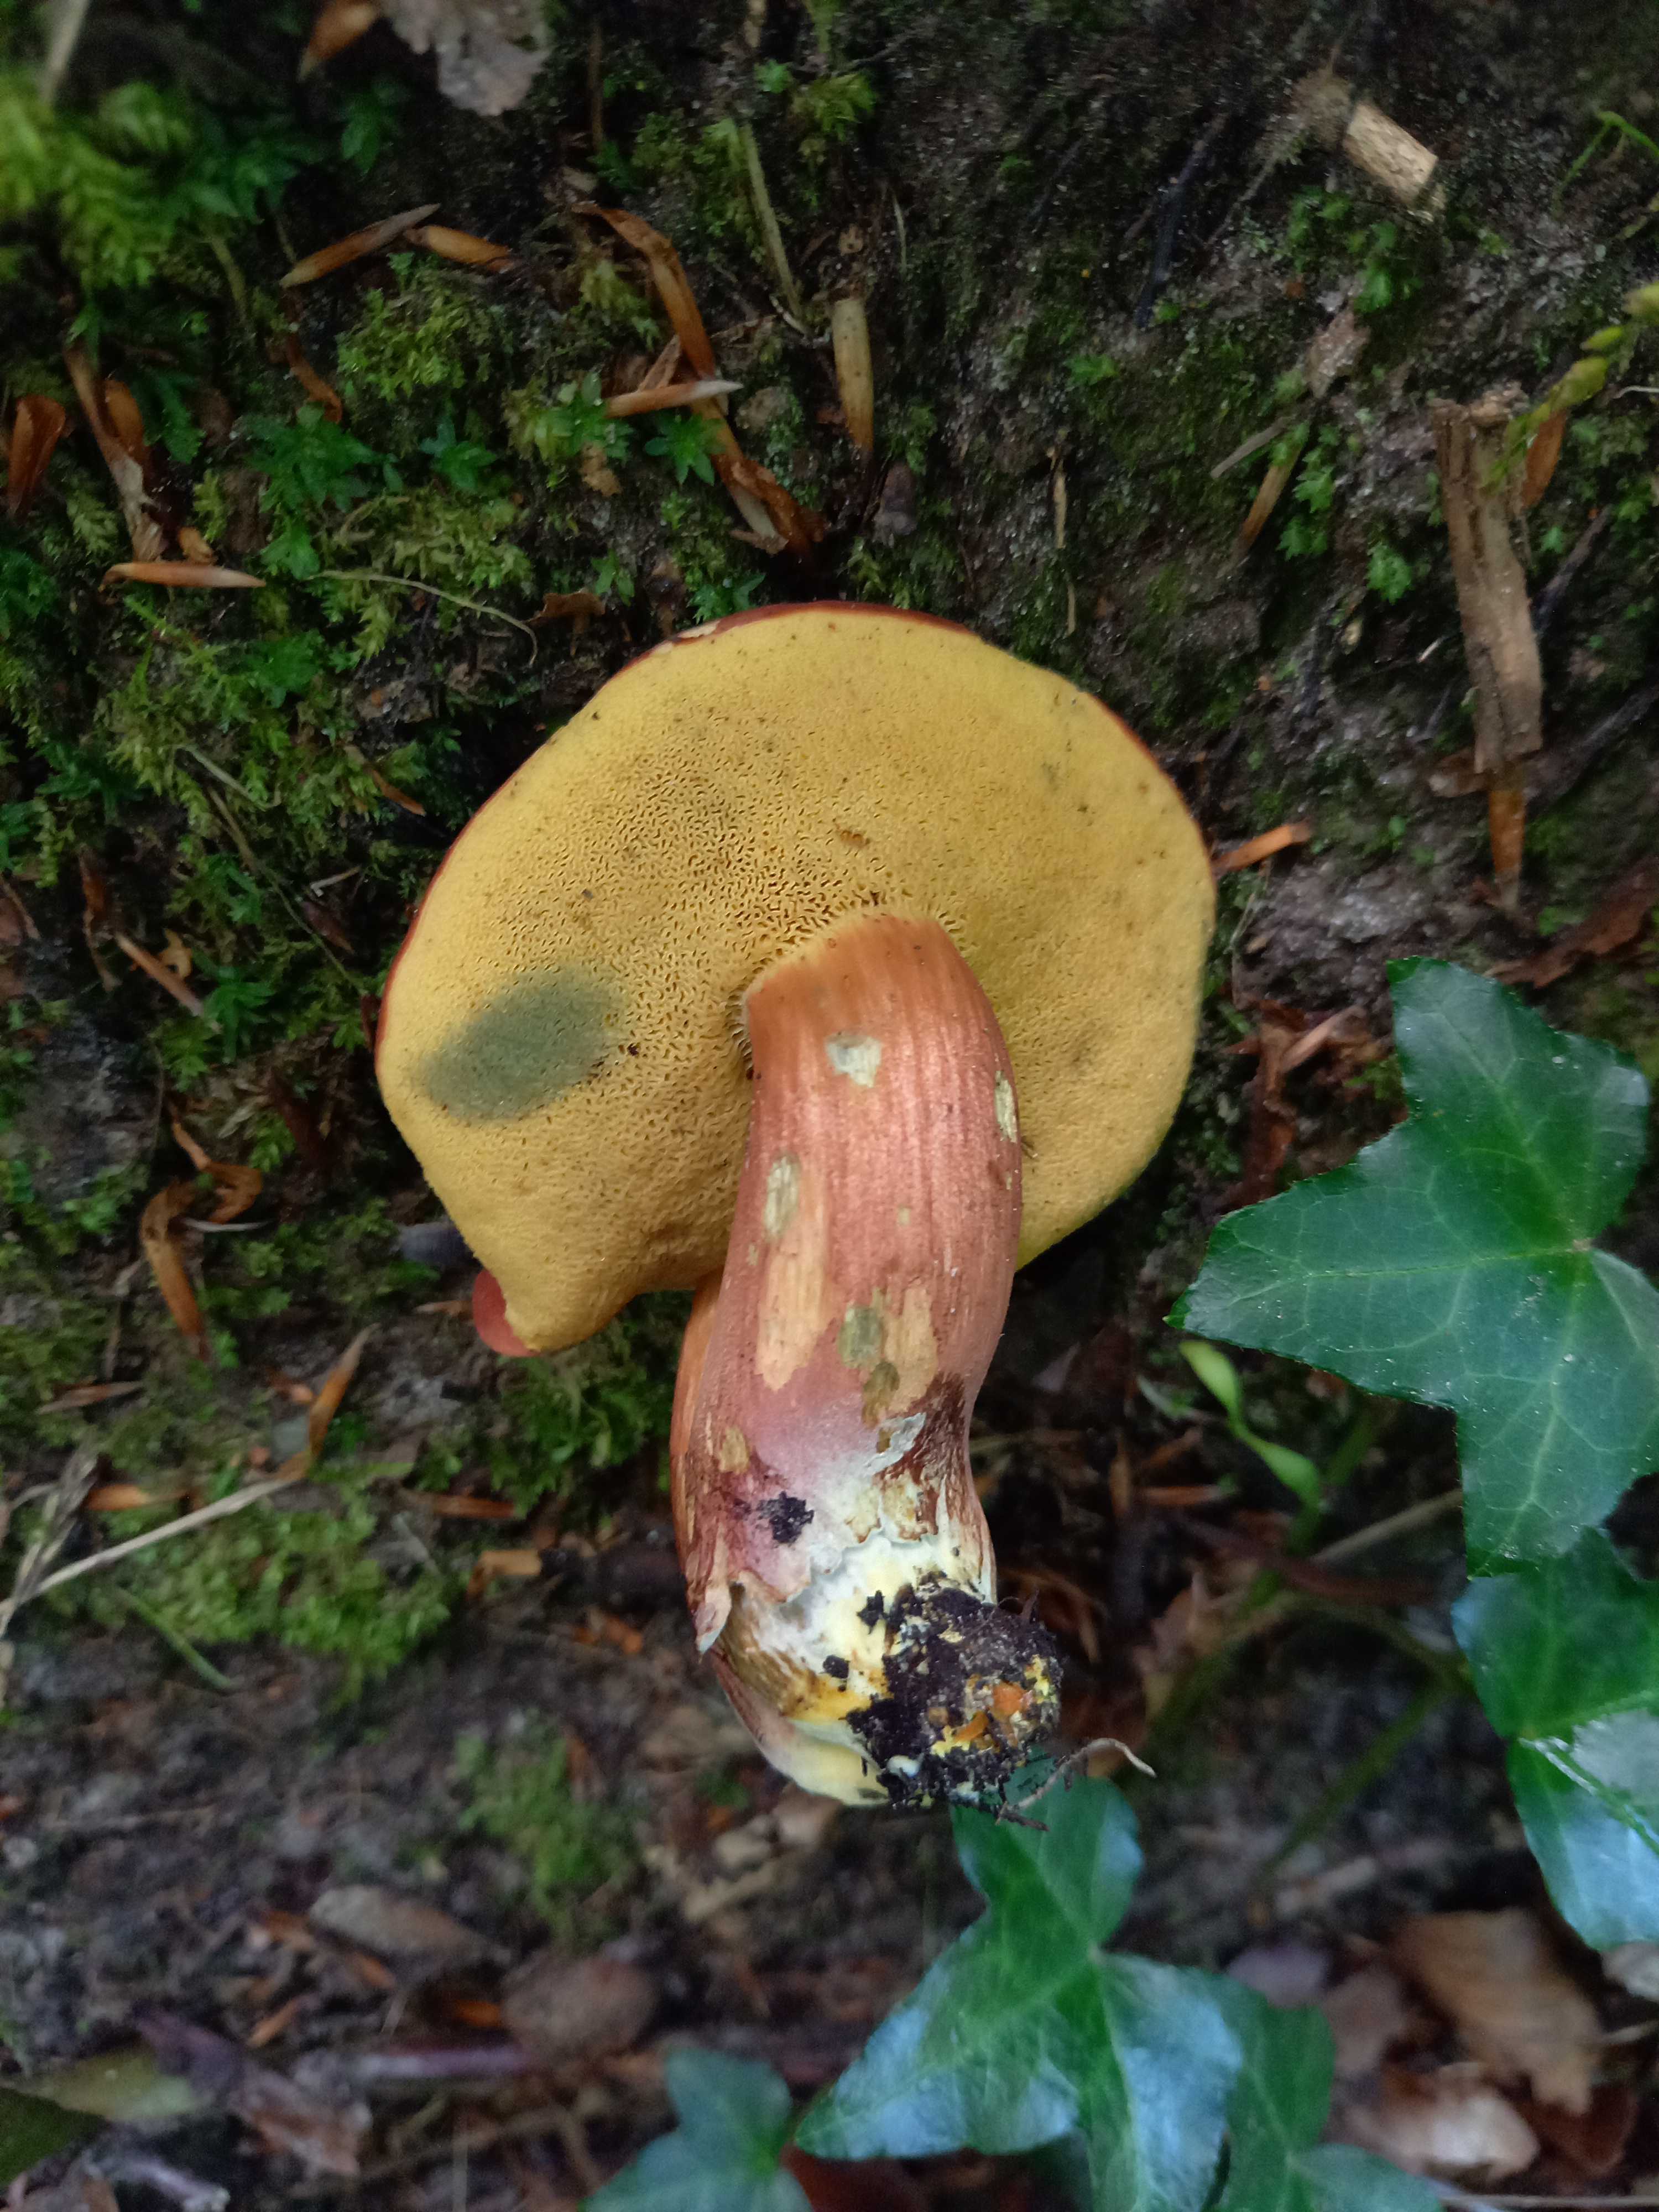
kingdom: Fungi
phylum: Basidiomycota
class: Agaricomycetes
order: Boletales
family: Boletaceae
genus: Hortiboletus
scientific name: Hortiboletus rubellus
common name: blodrød rørhat
